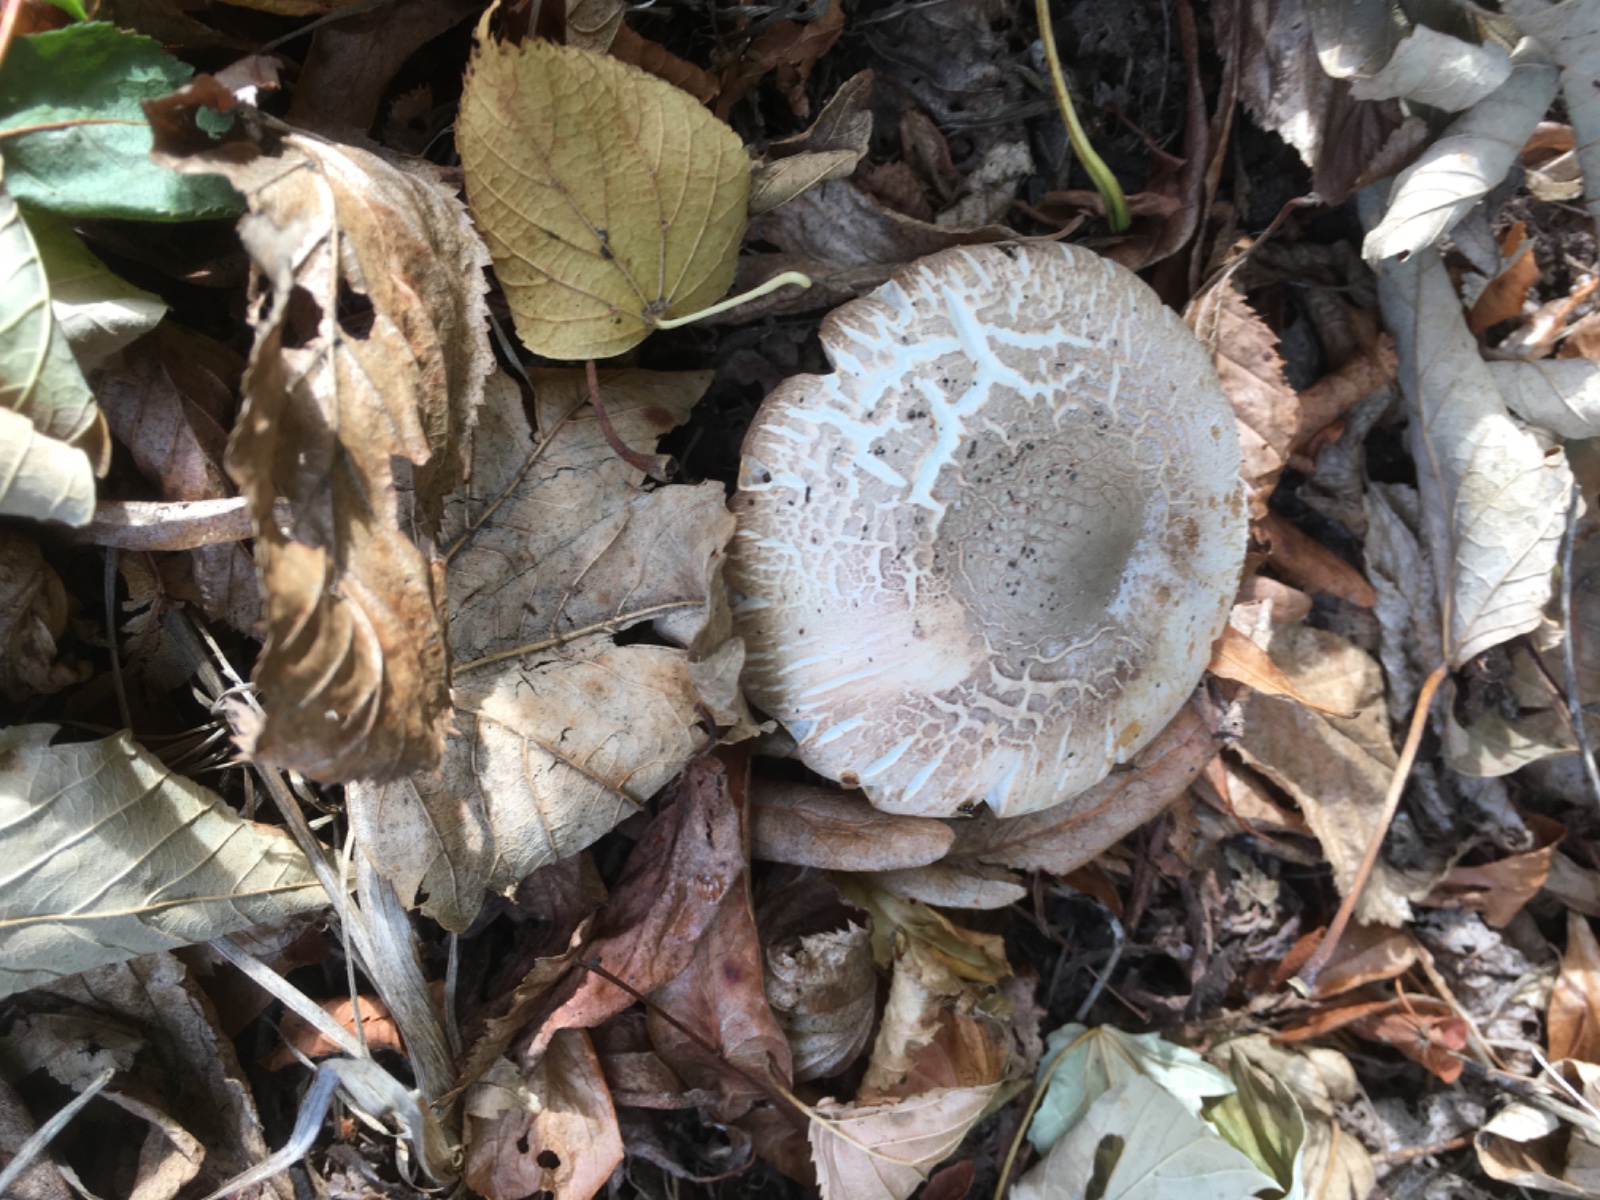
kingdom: Fungi
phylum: Basidiomycota
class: Agaricomycetes
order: Agaricales
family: Agaricaceae
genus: Agaricus
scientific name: Agaricus impudicus
